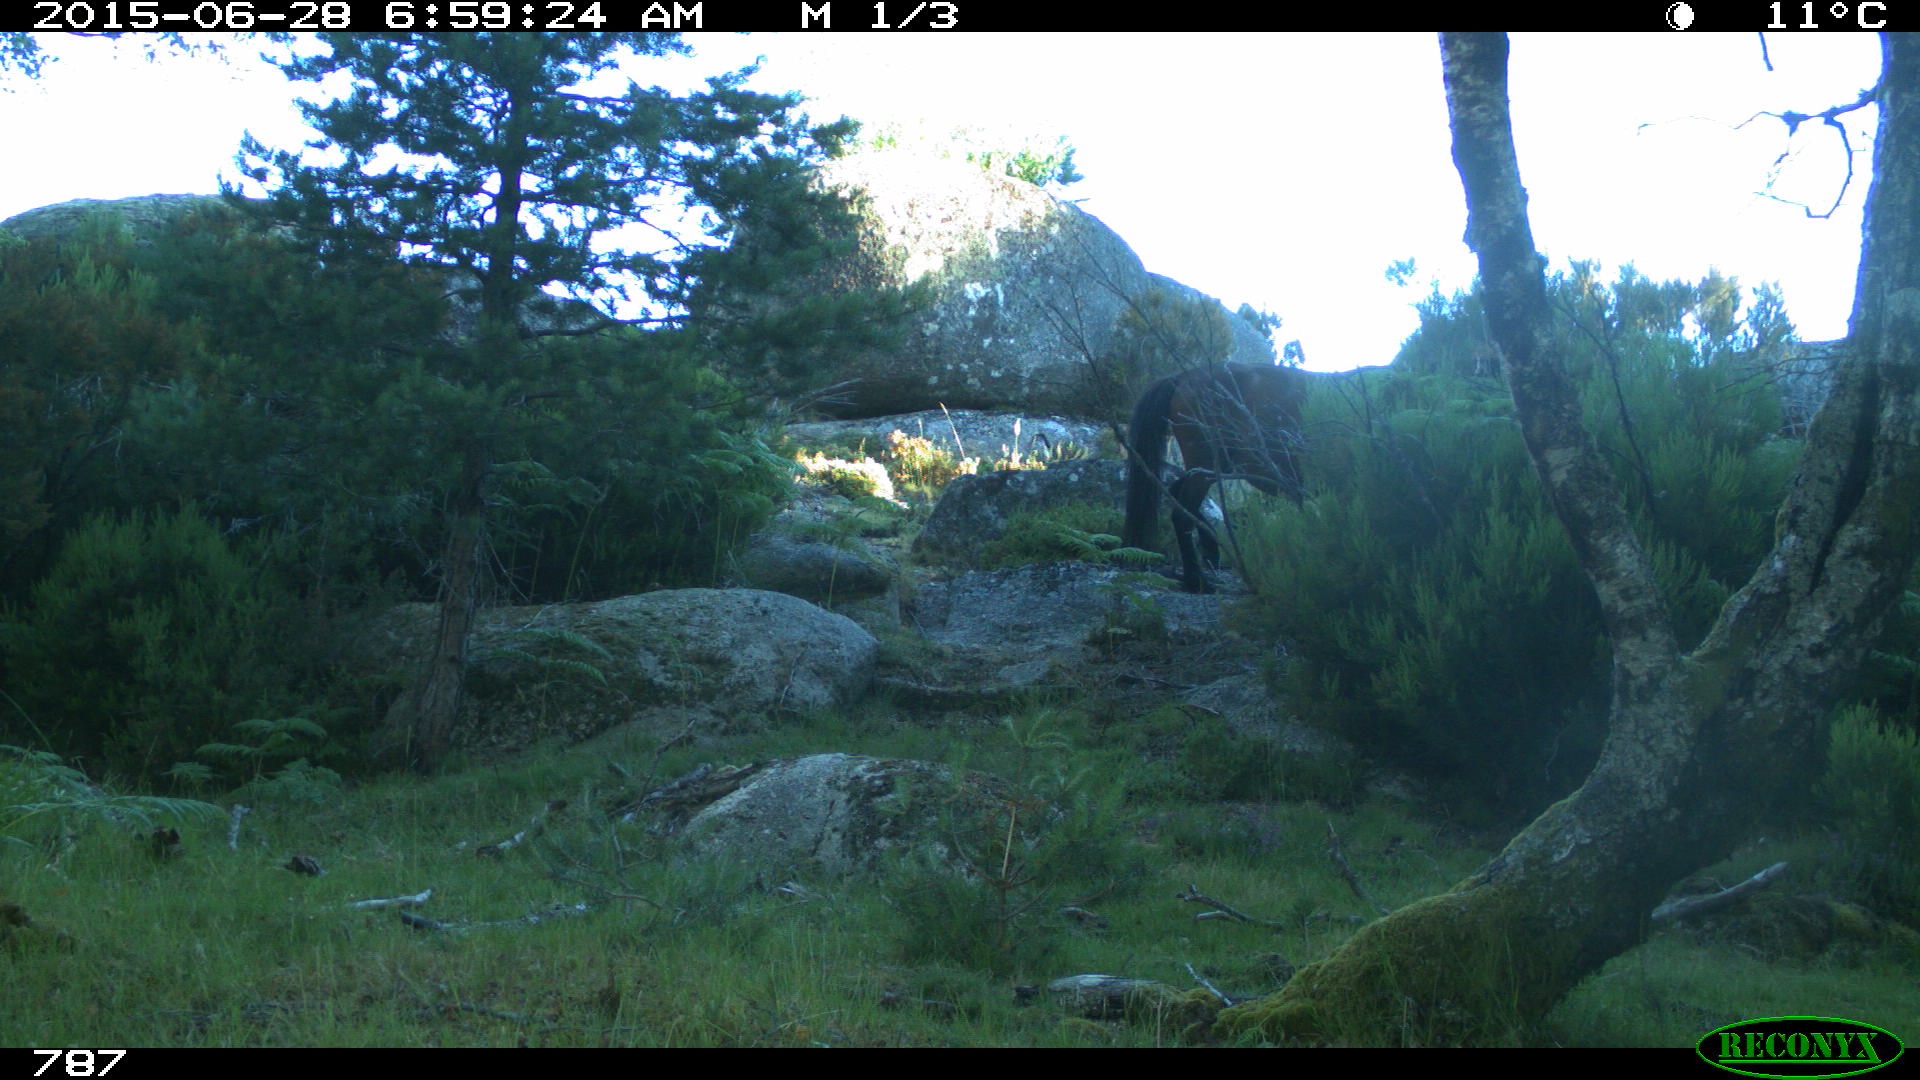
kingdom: Animalia
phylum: Chordata
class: Mammalia
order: Perissodactyla
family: Equidae
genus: Equus
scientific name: Equus caballus
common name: Horse
